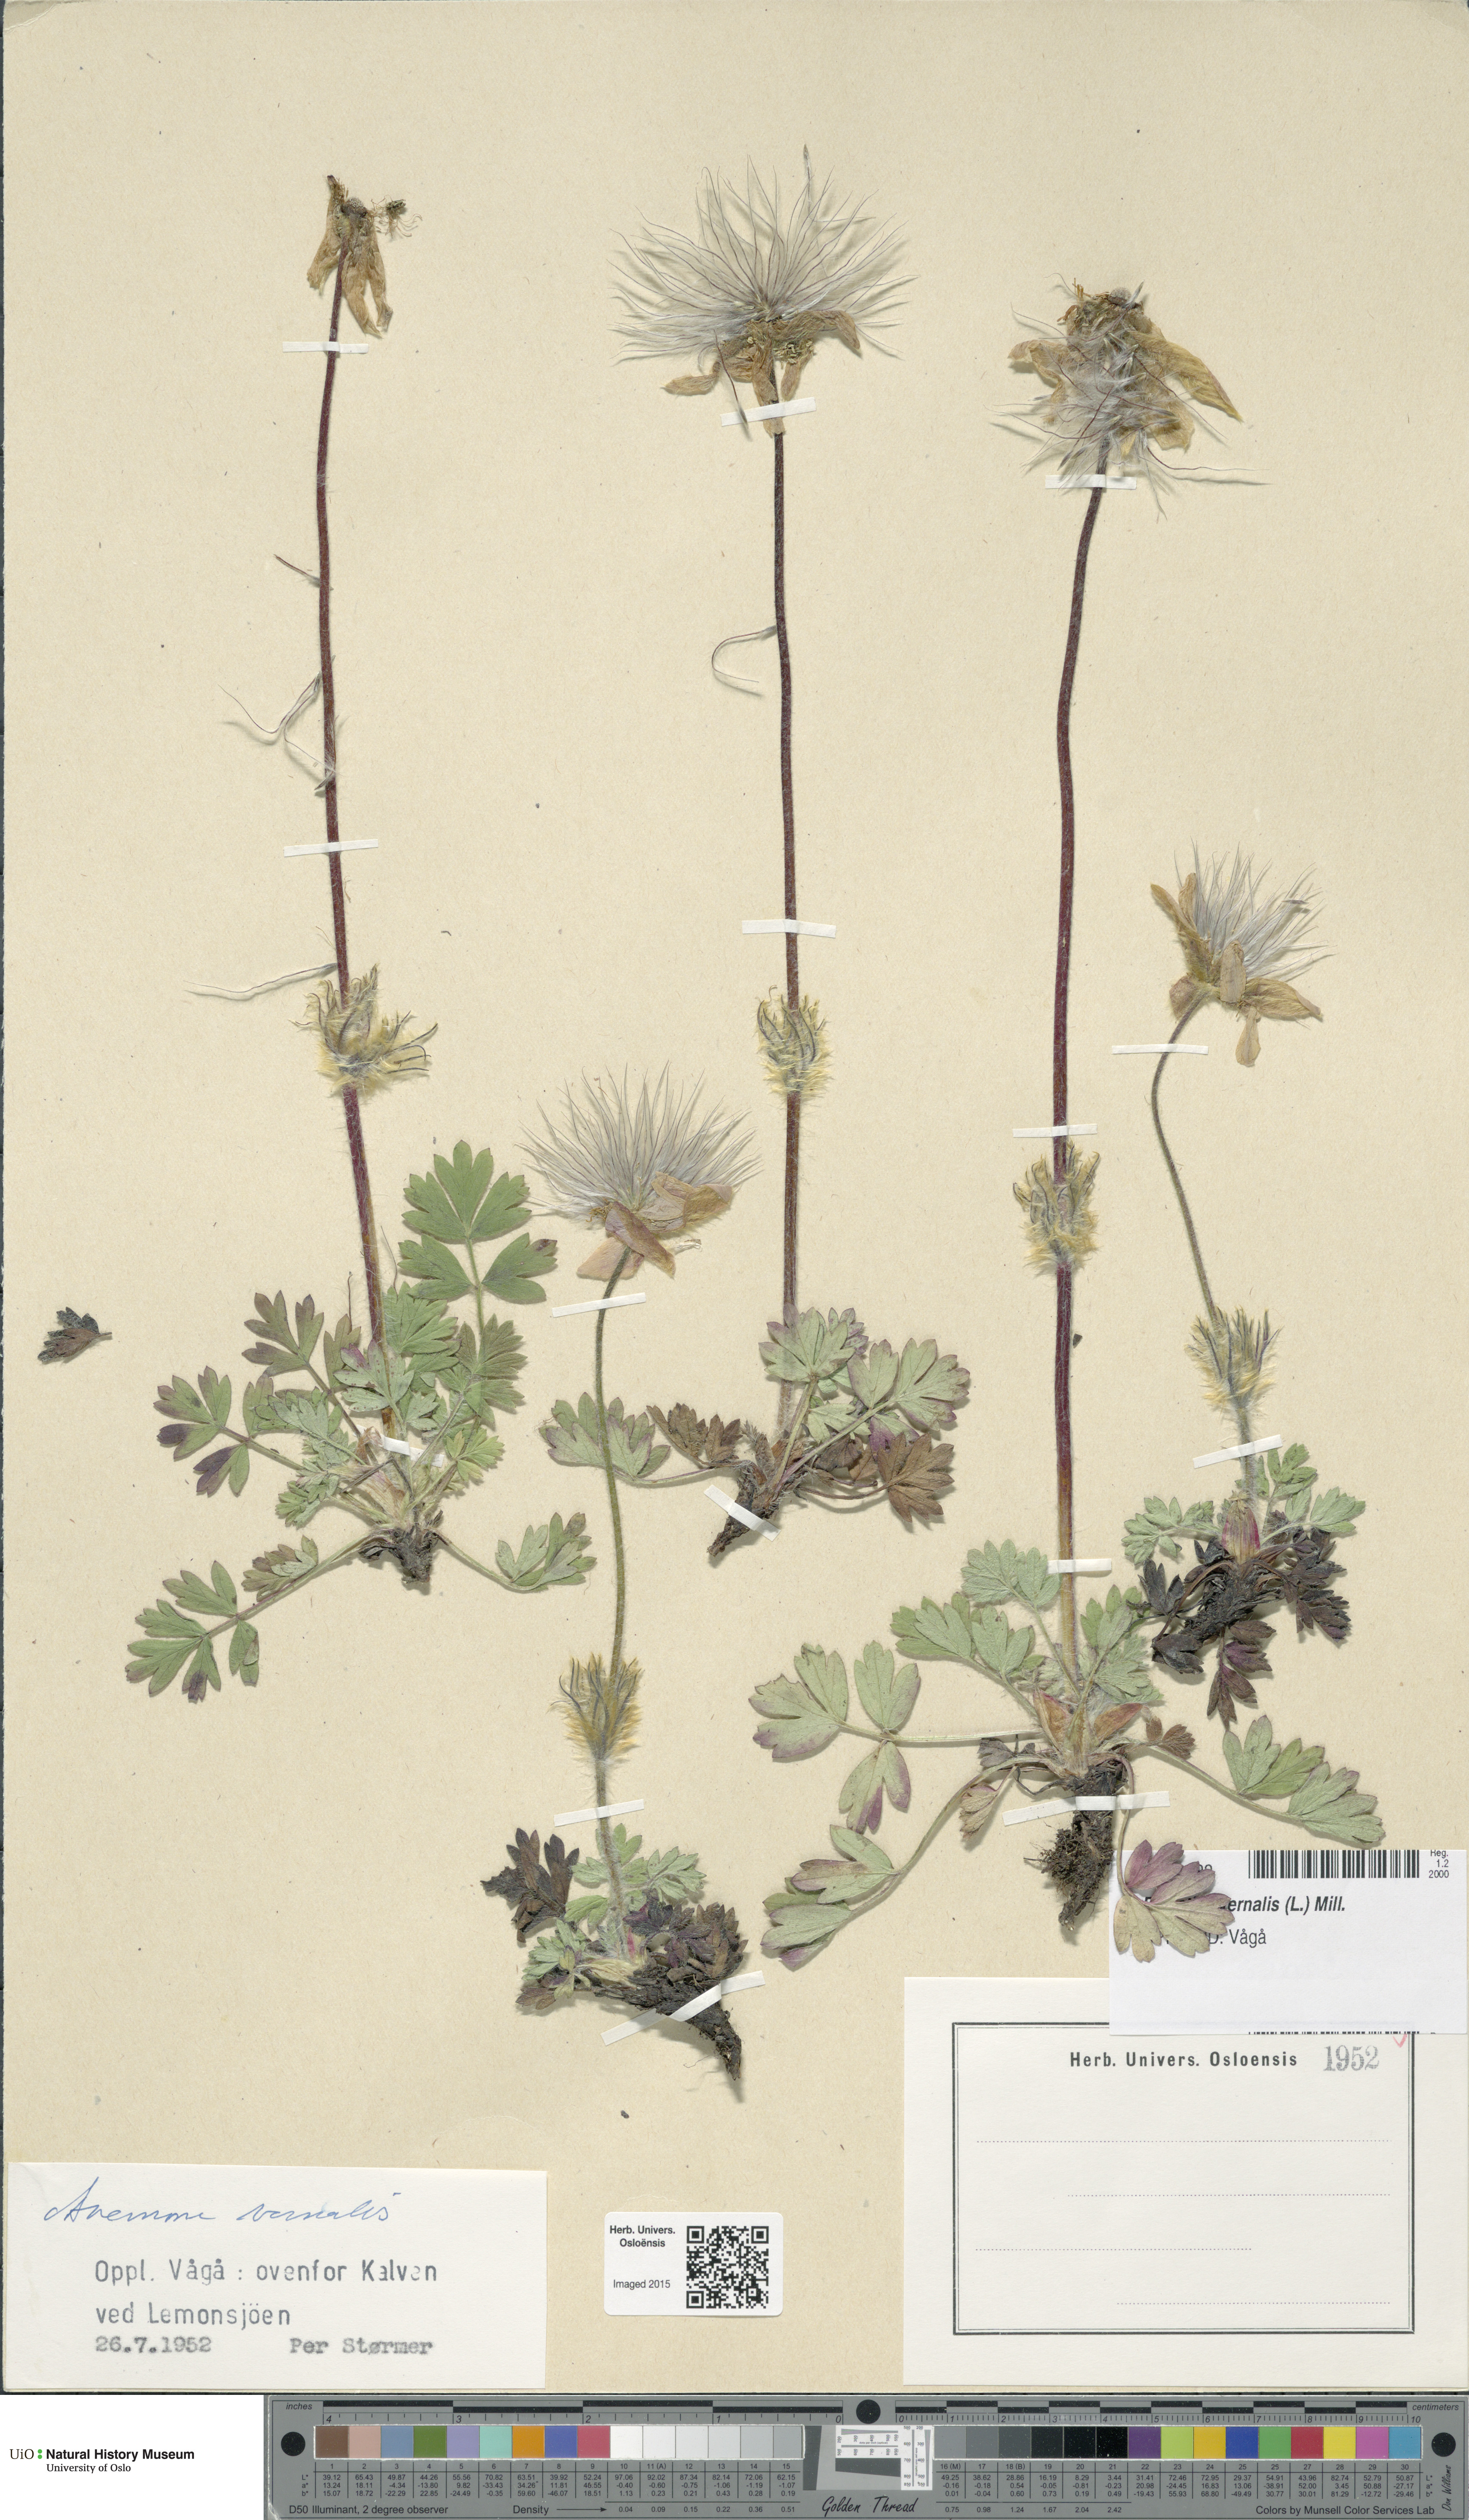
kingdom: Plantae
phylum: Tracheophyta
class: Magnoliopsida
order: Ranunculales
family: Ranunculaceae
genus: Pulsatilla
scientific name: Pulsatilla vernalis
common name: Spring pasque flower
